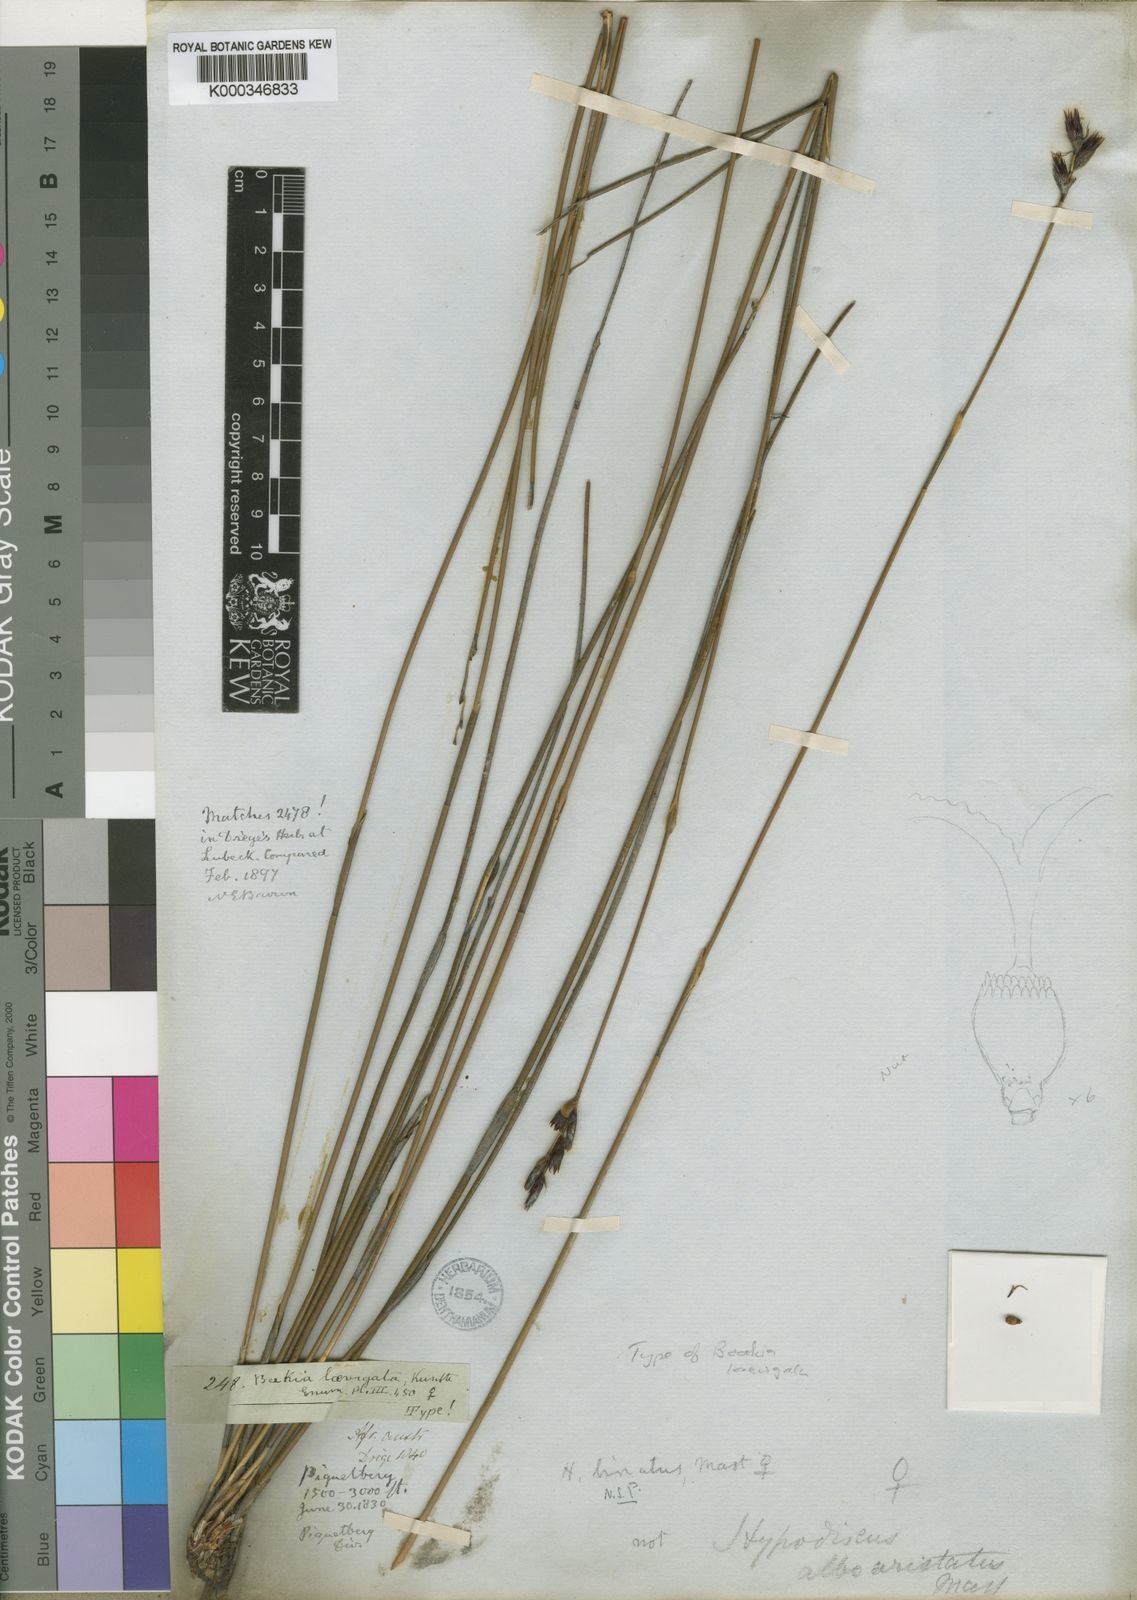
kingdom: Plantae
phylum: Tracheophyta
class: Liliopsida
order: Poales
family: Restionaceae
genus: Hypodiscus
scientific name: Hypodiscus laevigatus
